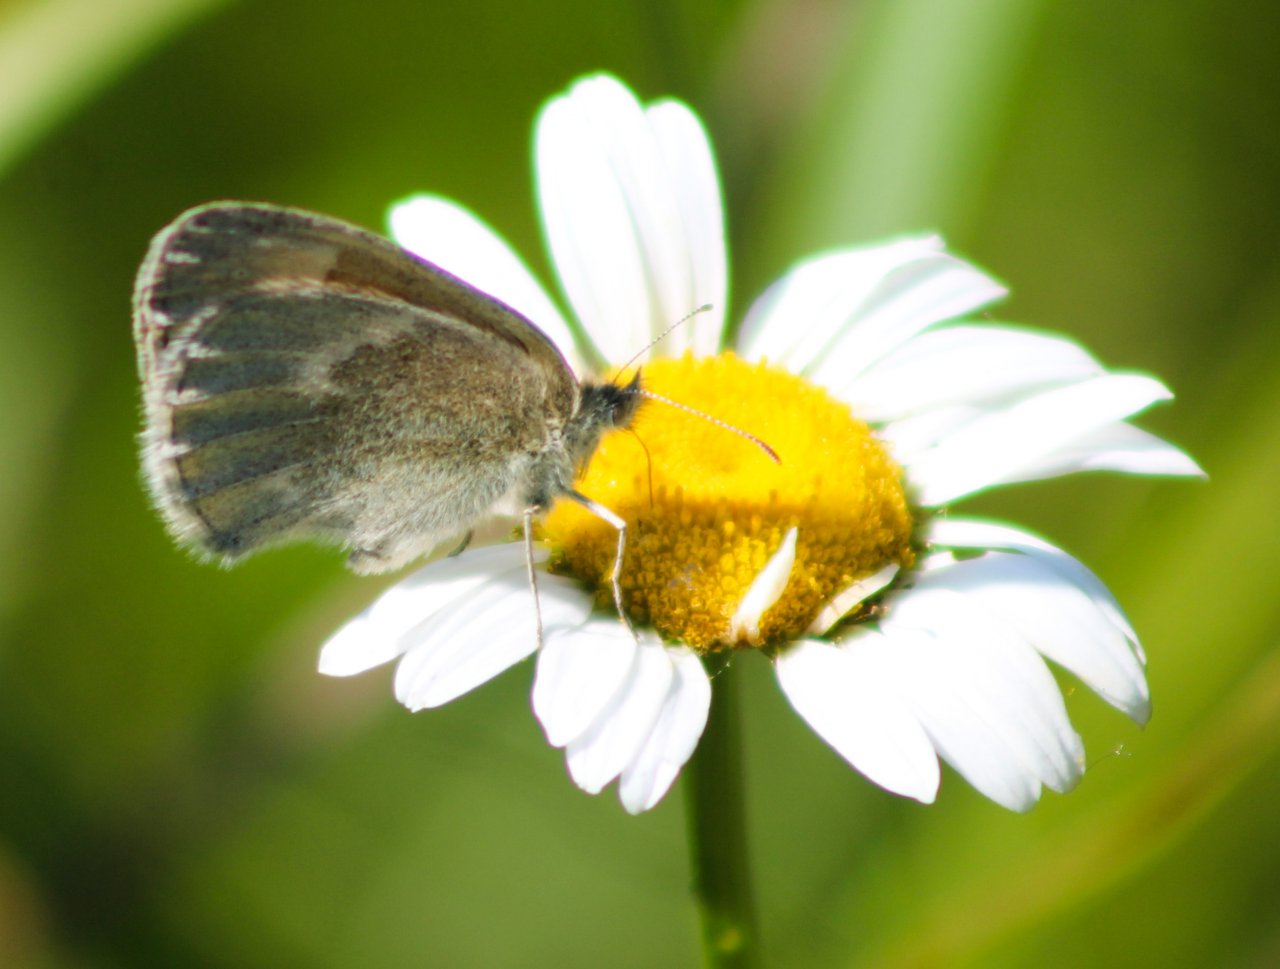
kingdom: Animalia
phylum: Arthropoda
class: Insecta
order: Lepidoptera
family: Nymphalidae
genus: Coenonympha
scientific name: Coenonympha tullia
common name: Large Heath
